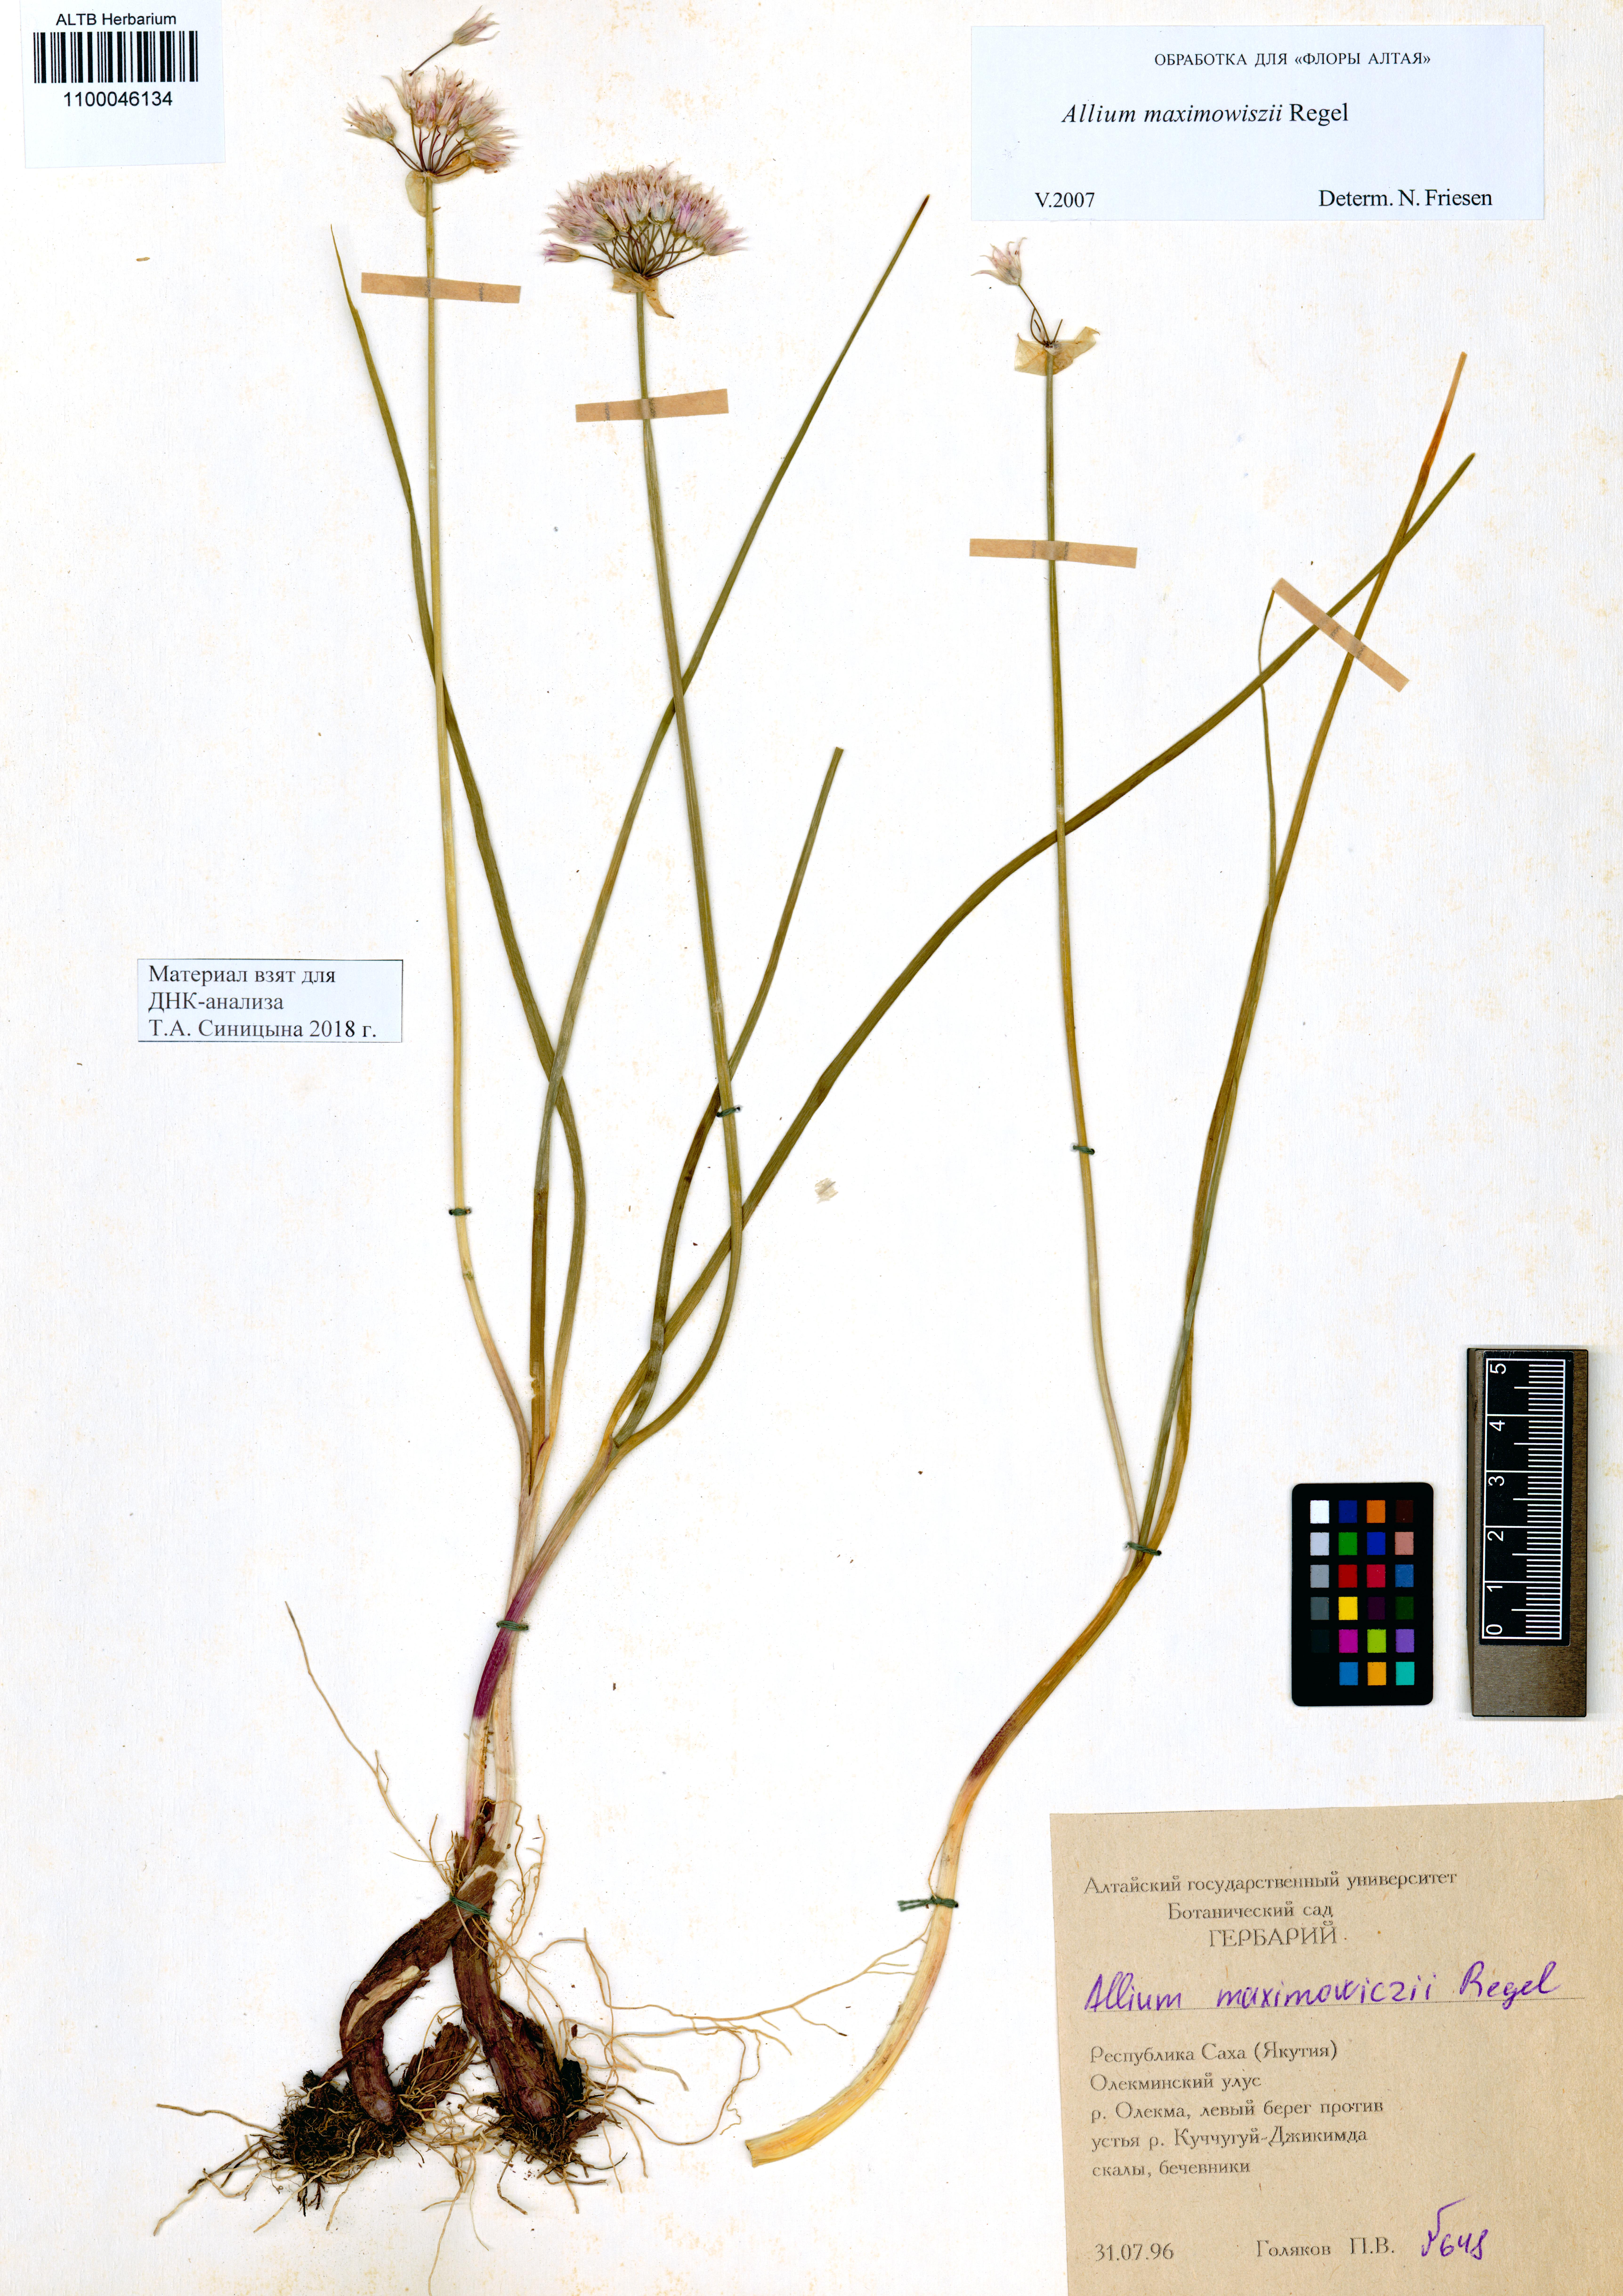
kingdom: Plantae
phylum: Tracheophyta
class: Liliopsida
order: Asparagales
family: Amaryllidaceae
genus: Allium
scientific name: Allium maximowiczii
